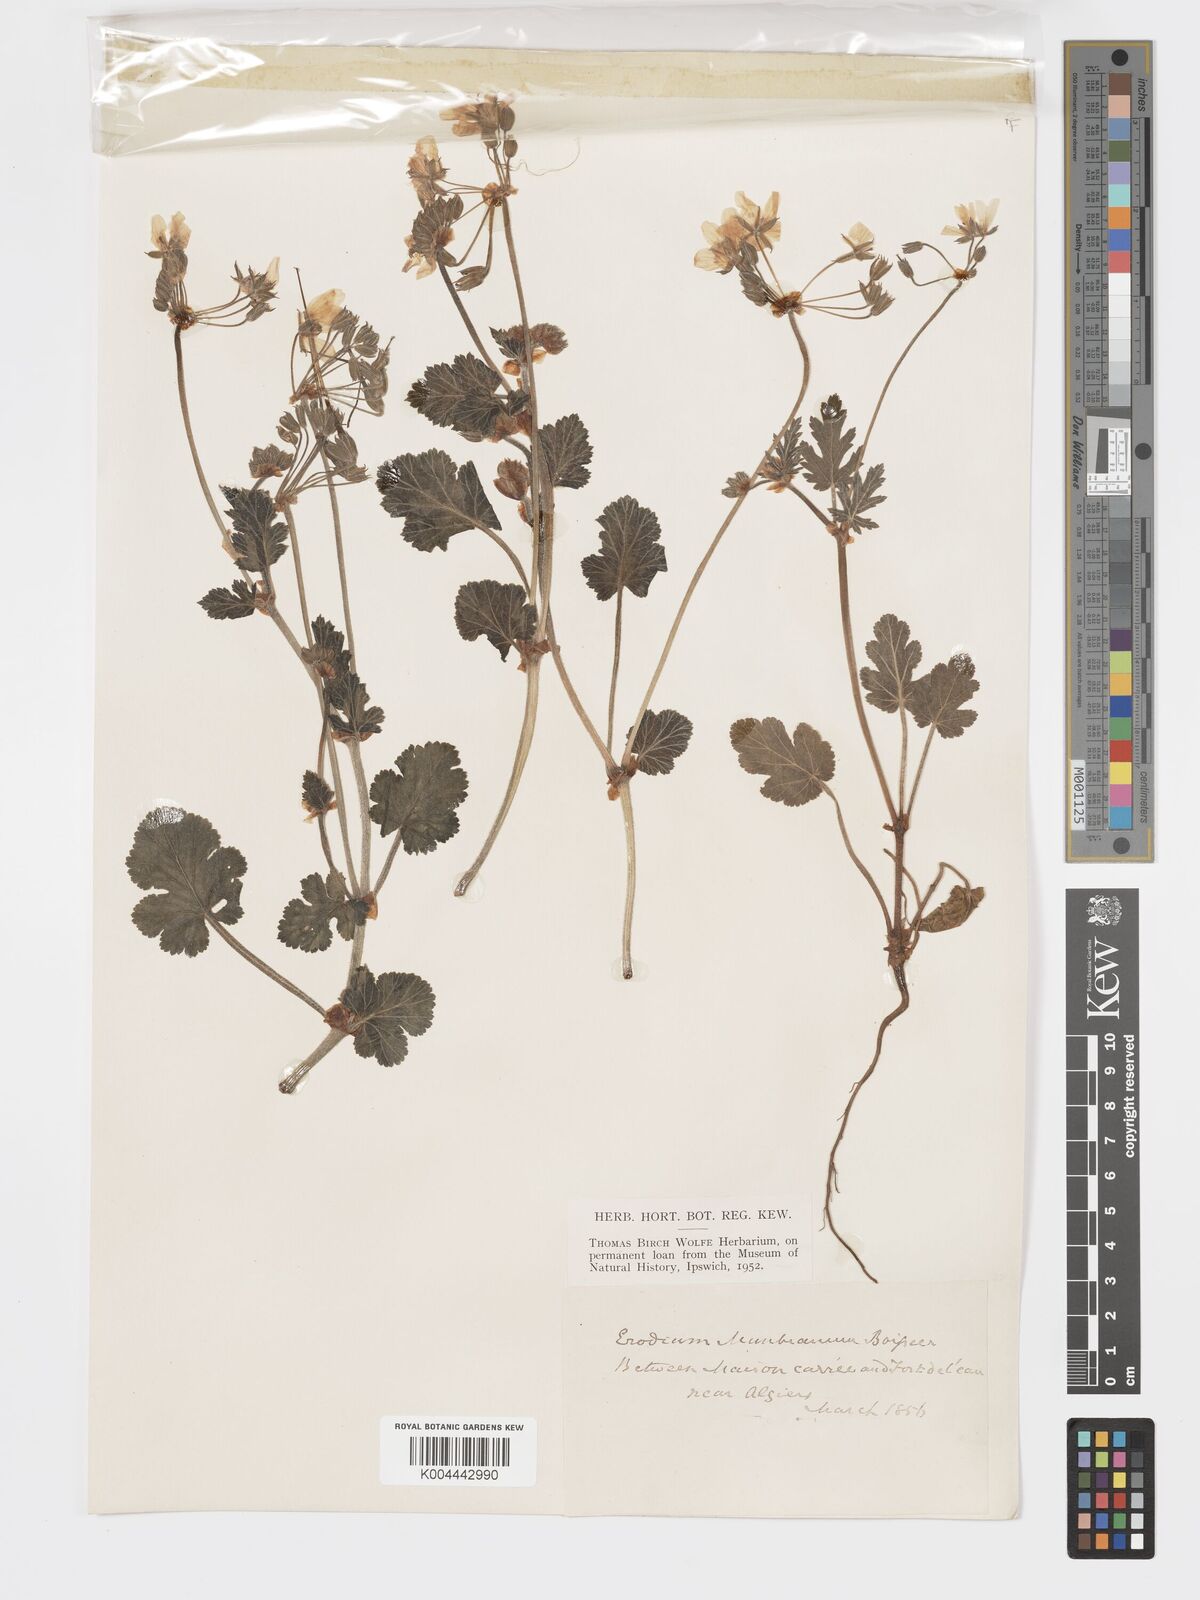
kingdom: Plantae
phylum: Tracheophyta
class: Magnoliopsida
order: Geraniales
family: Geraniaceae
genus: Erodium
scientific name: Erodium munbyanum
